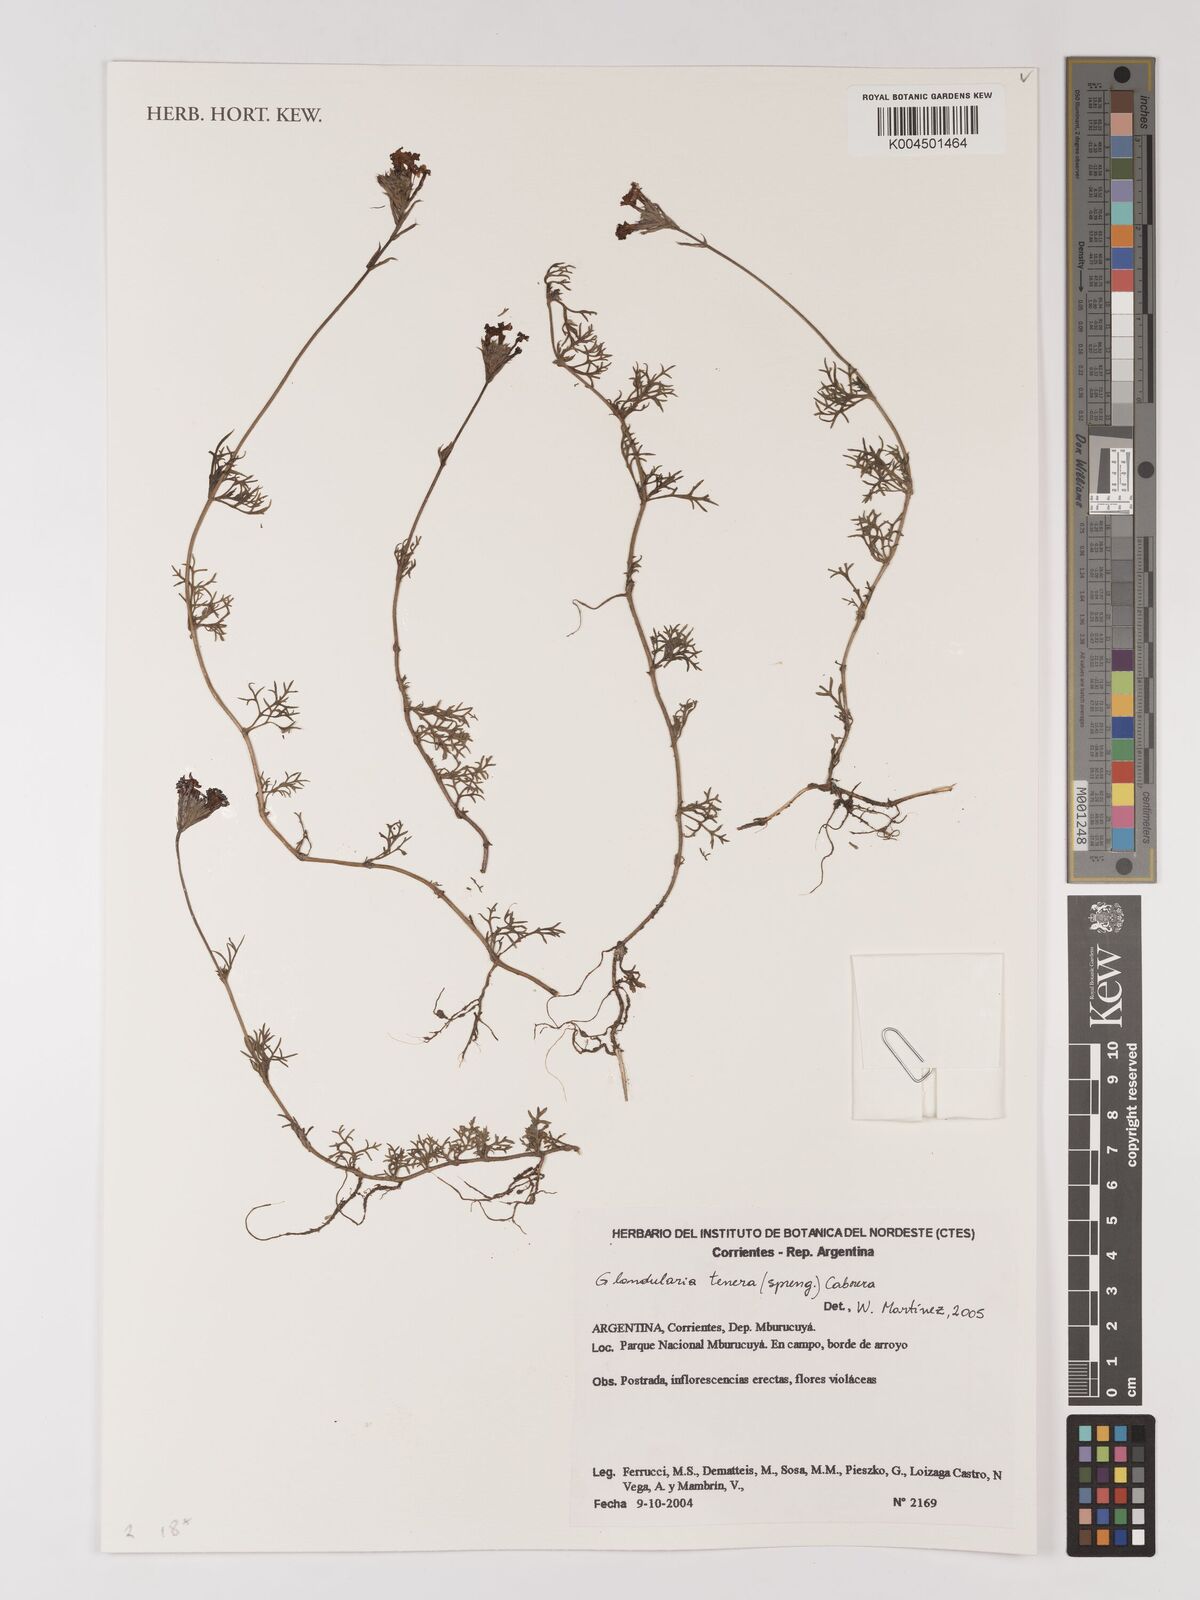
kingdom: Plantae
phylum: Tracheophyta
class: Magnoliopsida
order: Lamiales
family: Verbenaceae
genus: Verbena
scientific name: Verbena tenera
